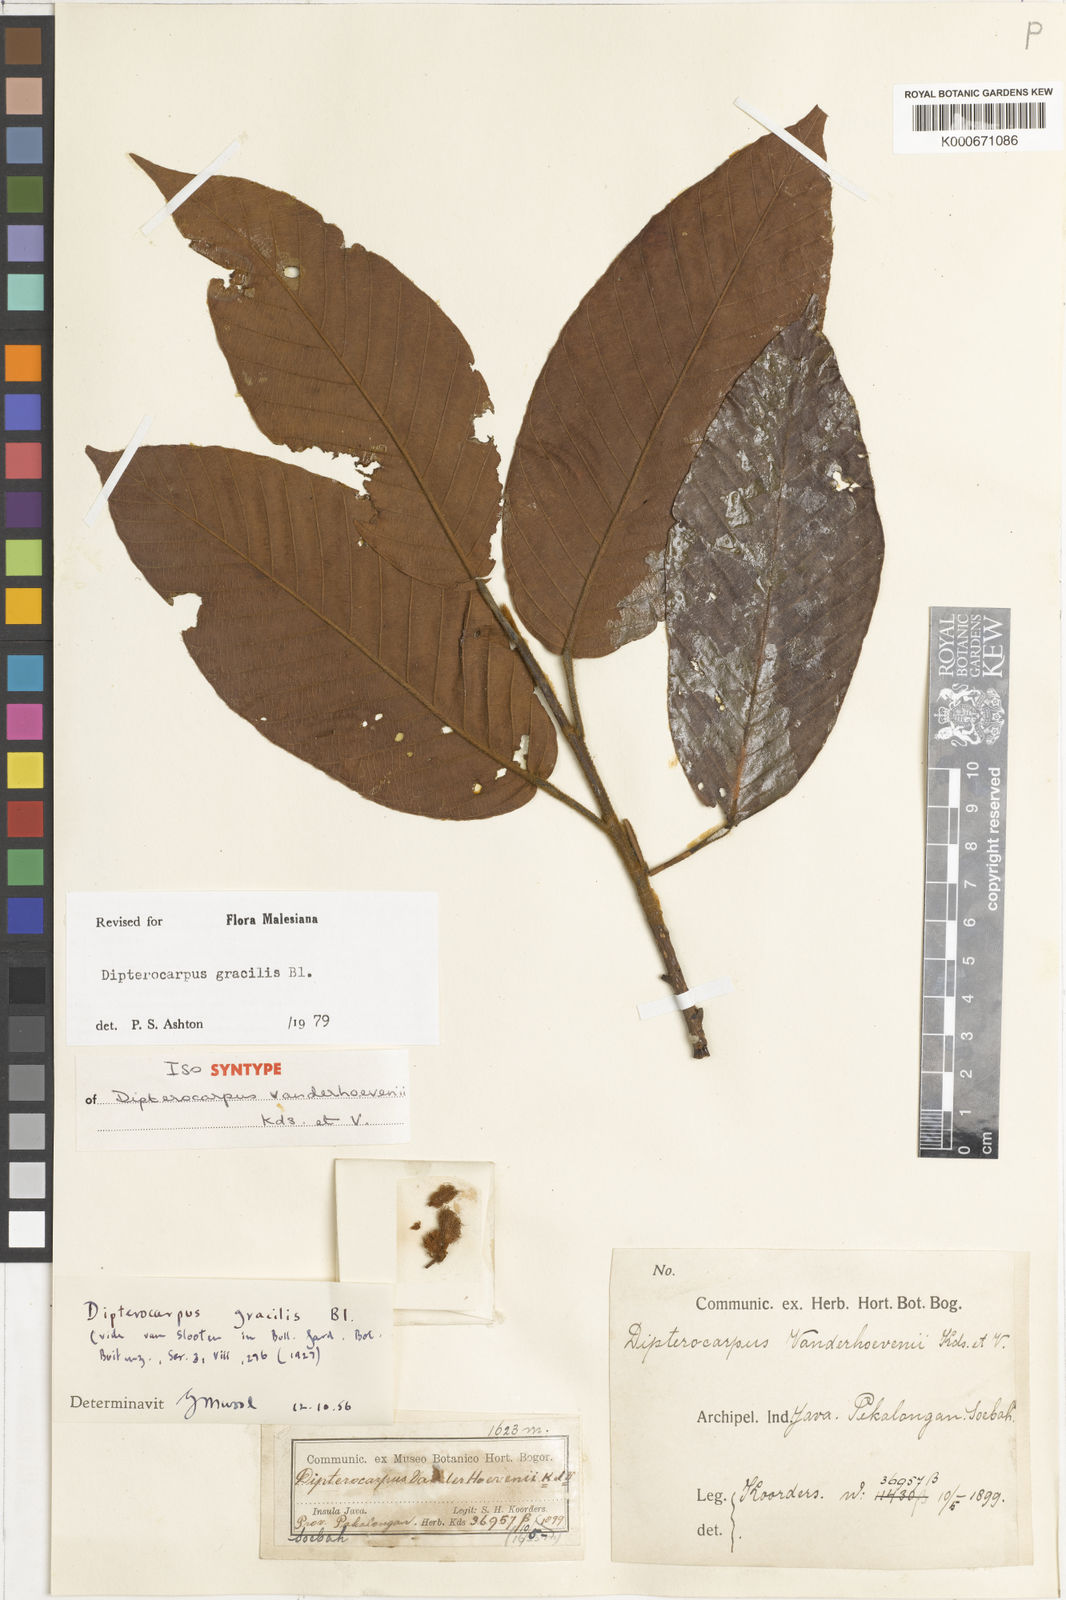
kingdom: Plantae
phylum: Tracheophyta
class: Magnoliopsida
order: Malvales
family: Dipterocarpaceae
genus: Dipterocarpus
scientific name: Dipterocarpus gracilis
